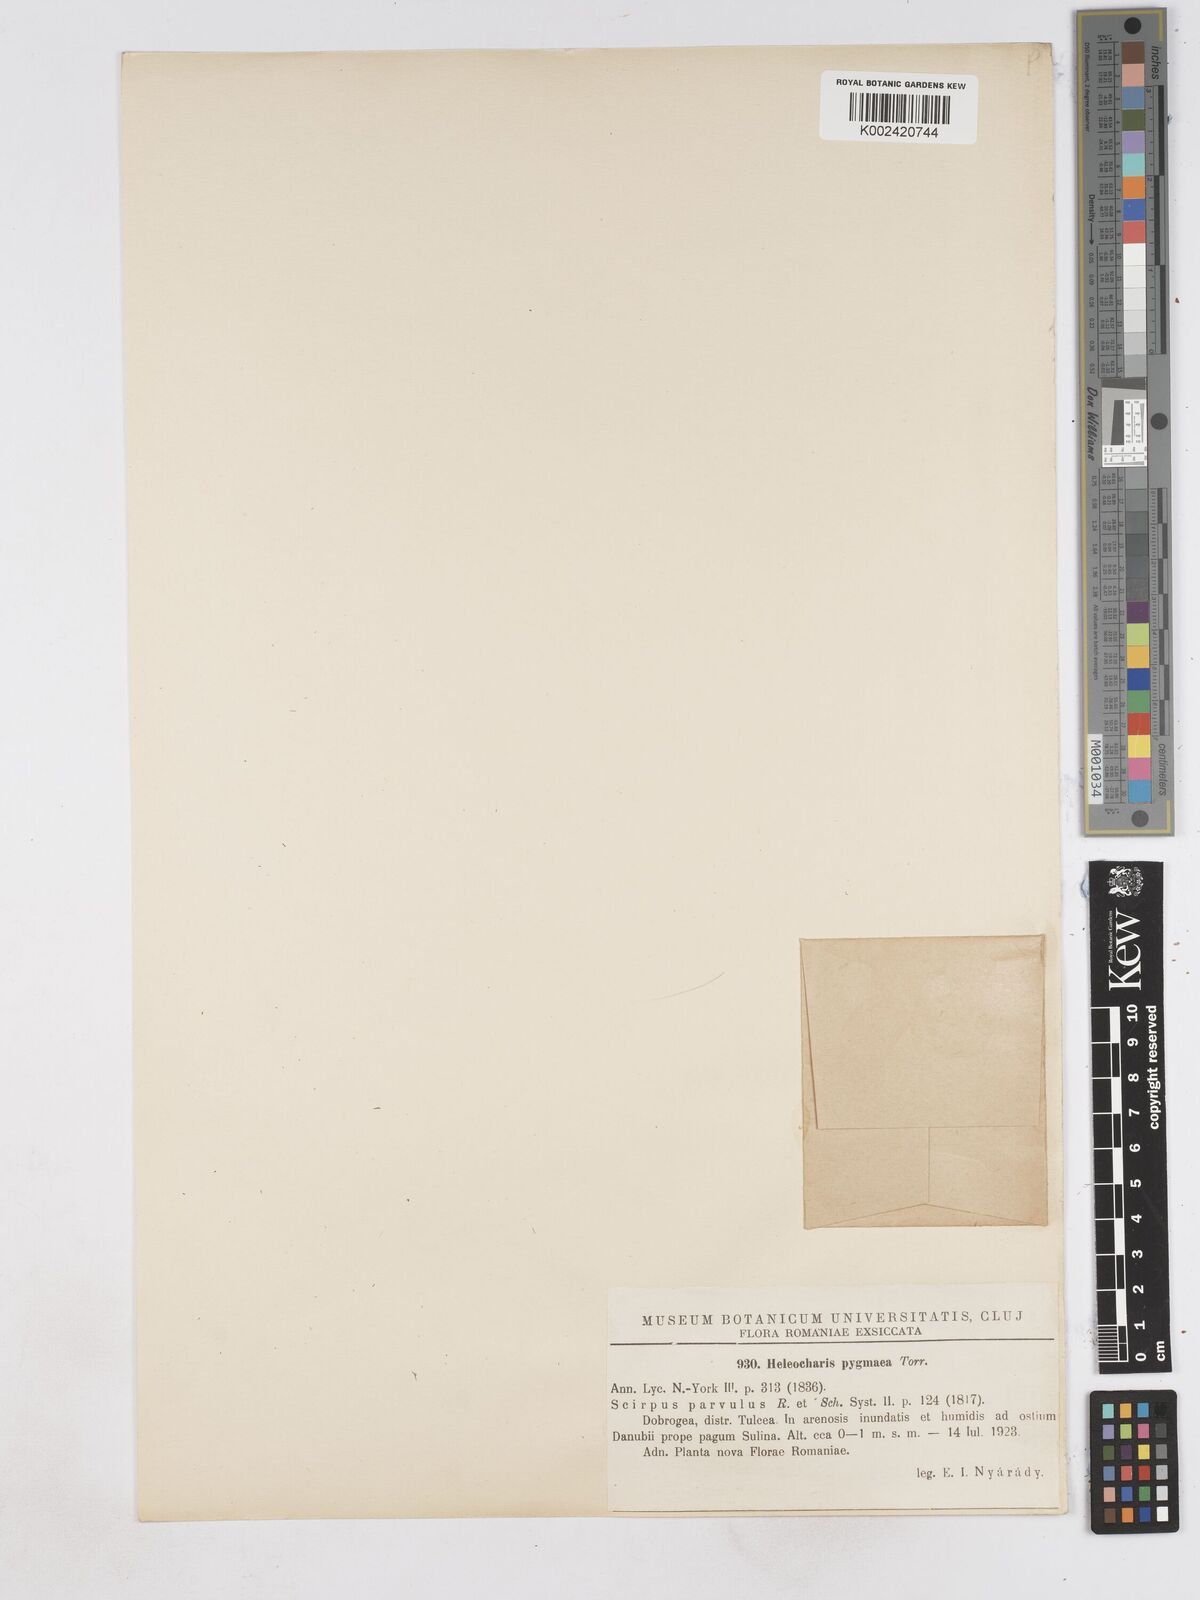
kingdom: Plantae
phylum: Tracheophyta
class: Liliopsida
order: Poales
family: Cyperaceae
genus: Eleocharis
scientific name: Eleocharis parvula
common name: Dwarf spike-rush
